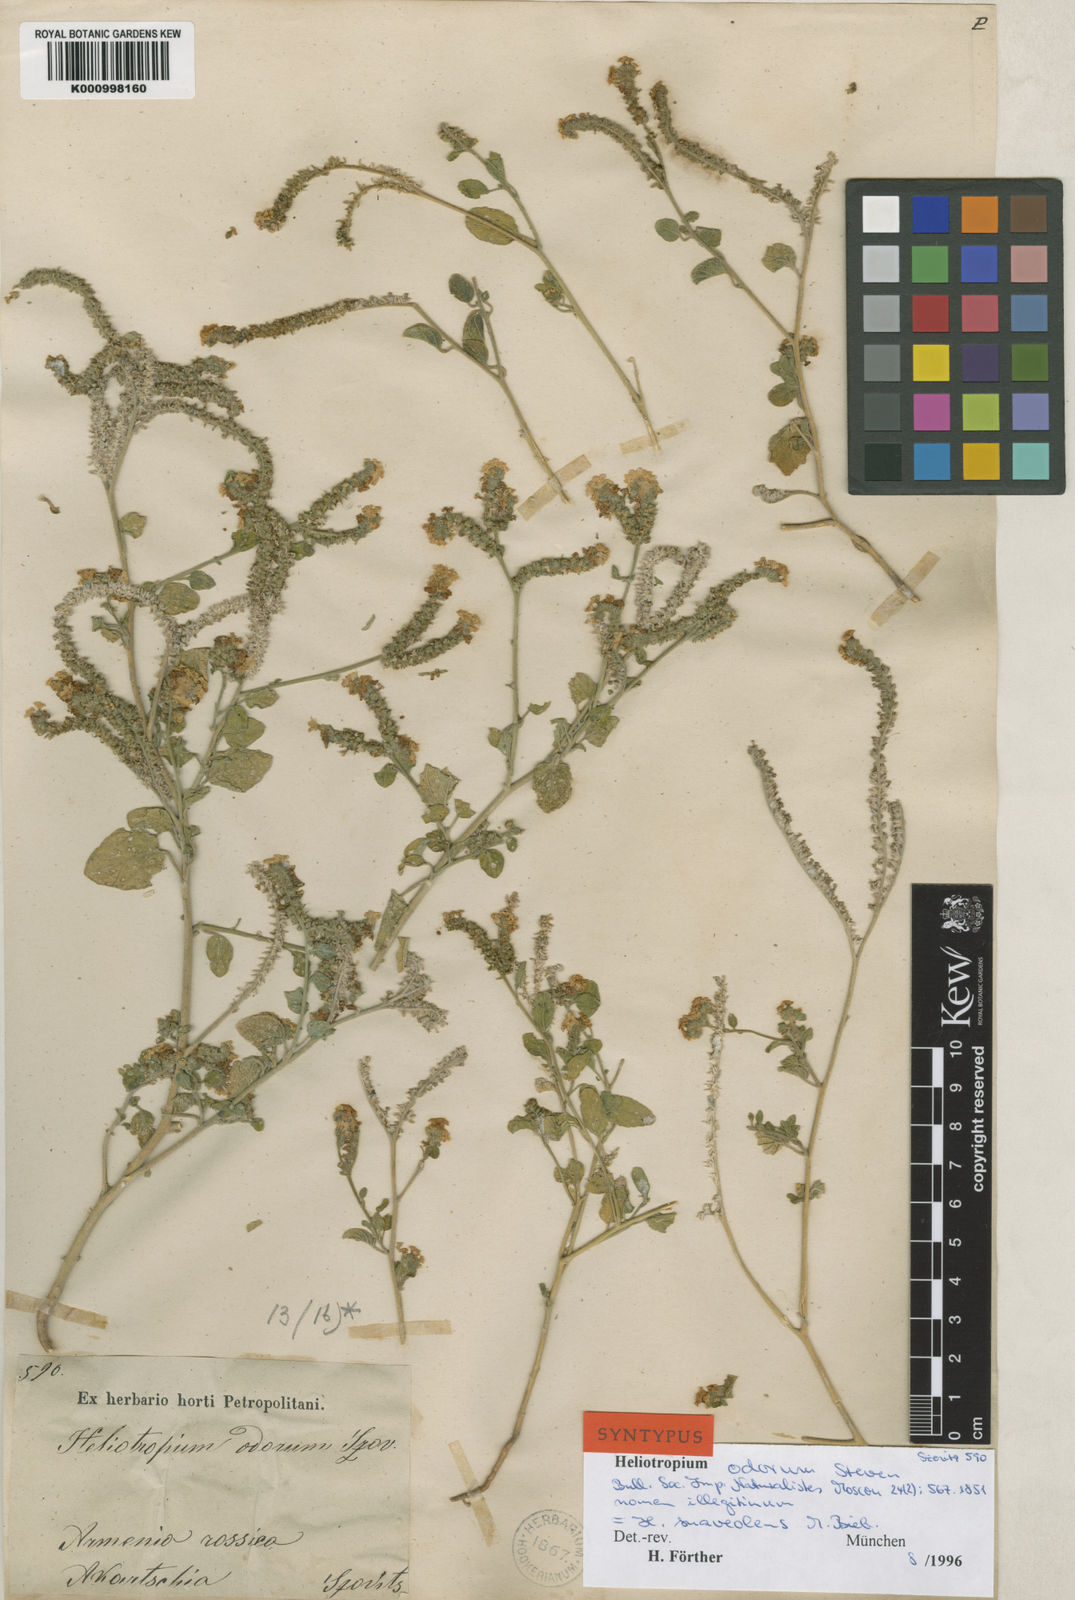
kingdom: Plantae
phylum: Tracheophyta
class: Magnoliopsida
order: Boraginales
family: Heliotropiaceae
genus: Heliotropium
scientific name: Heliotropium suaveolens
